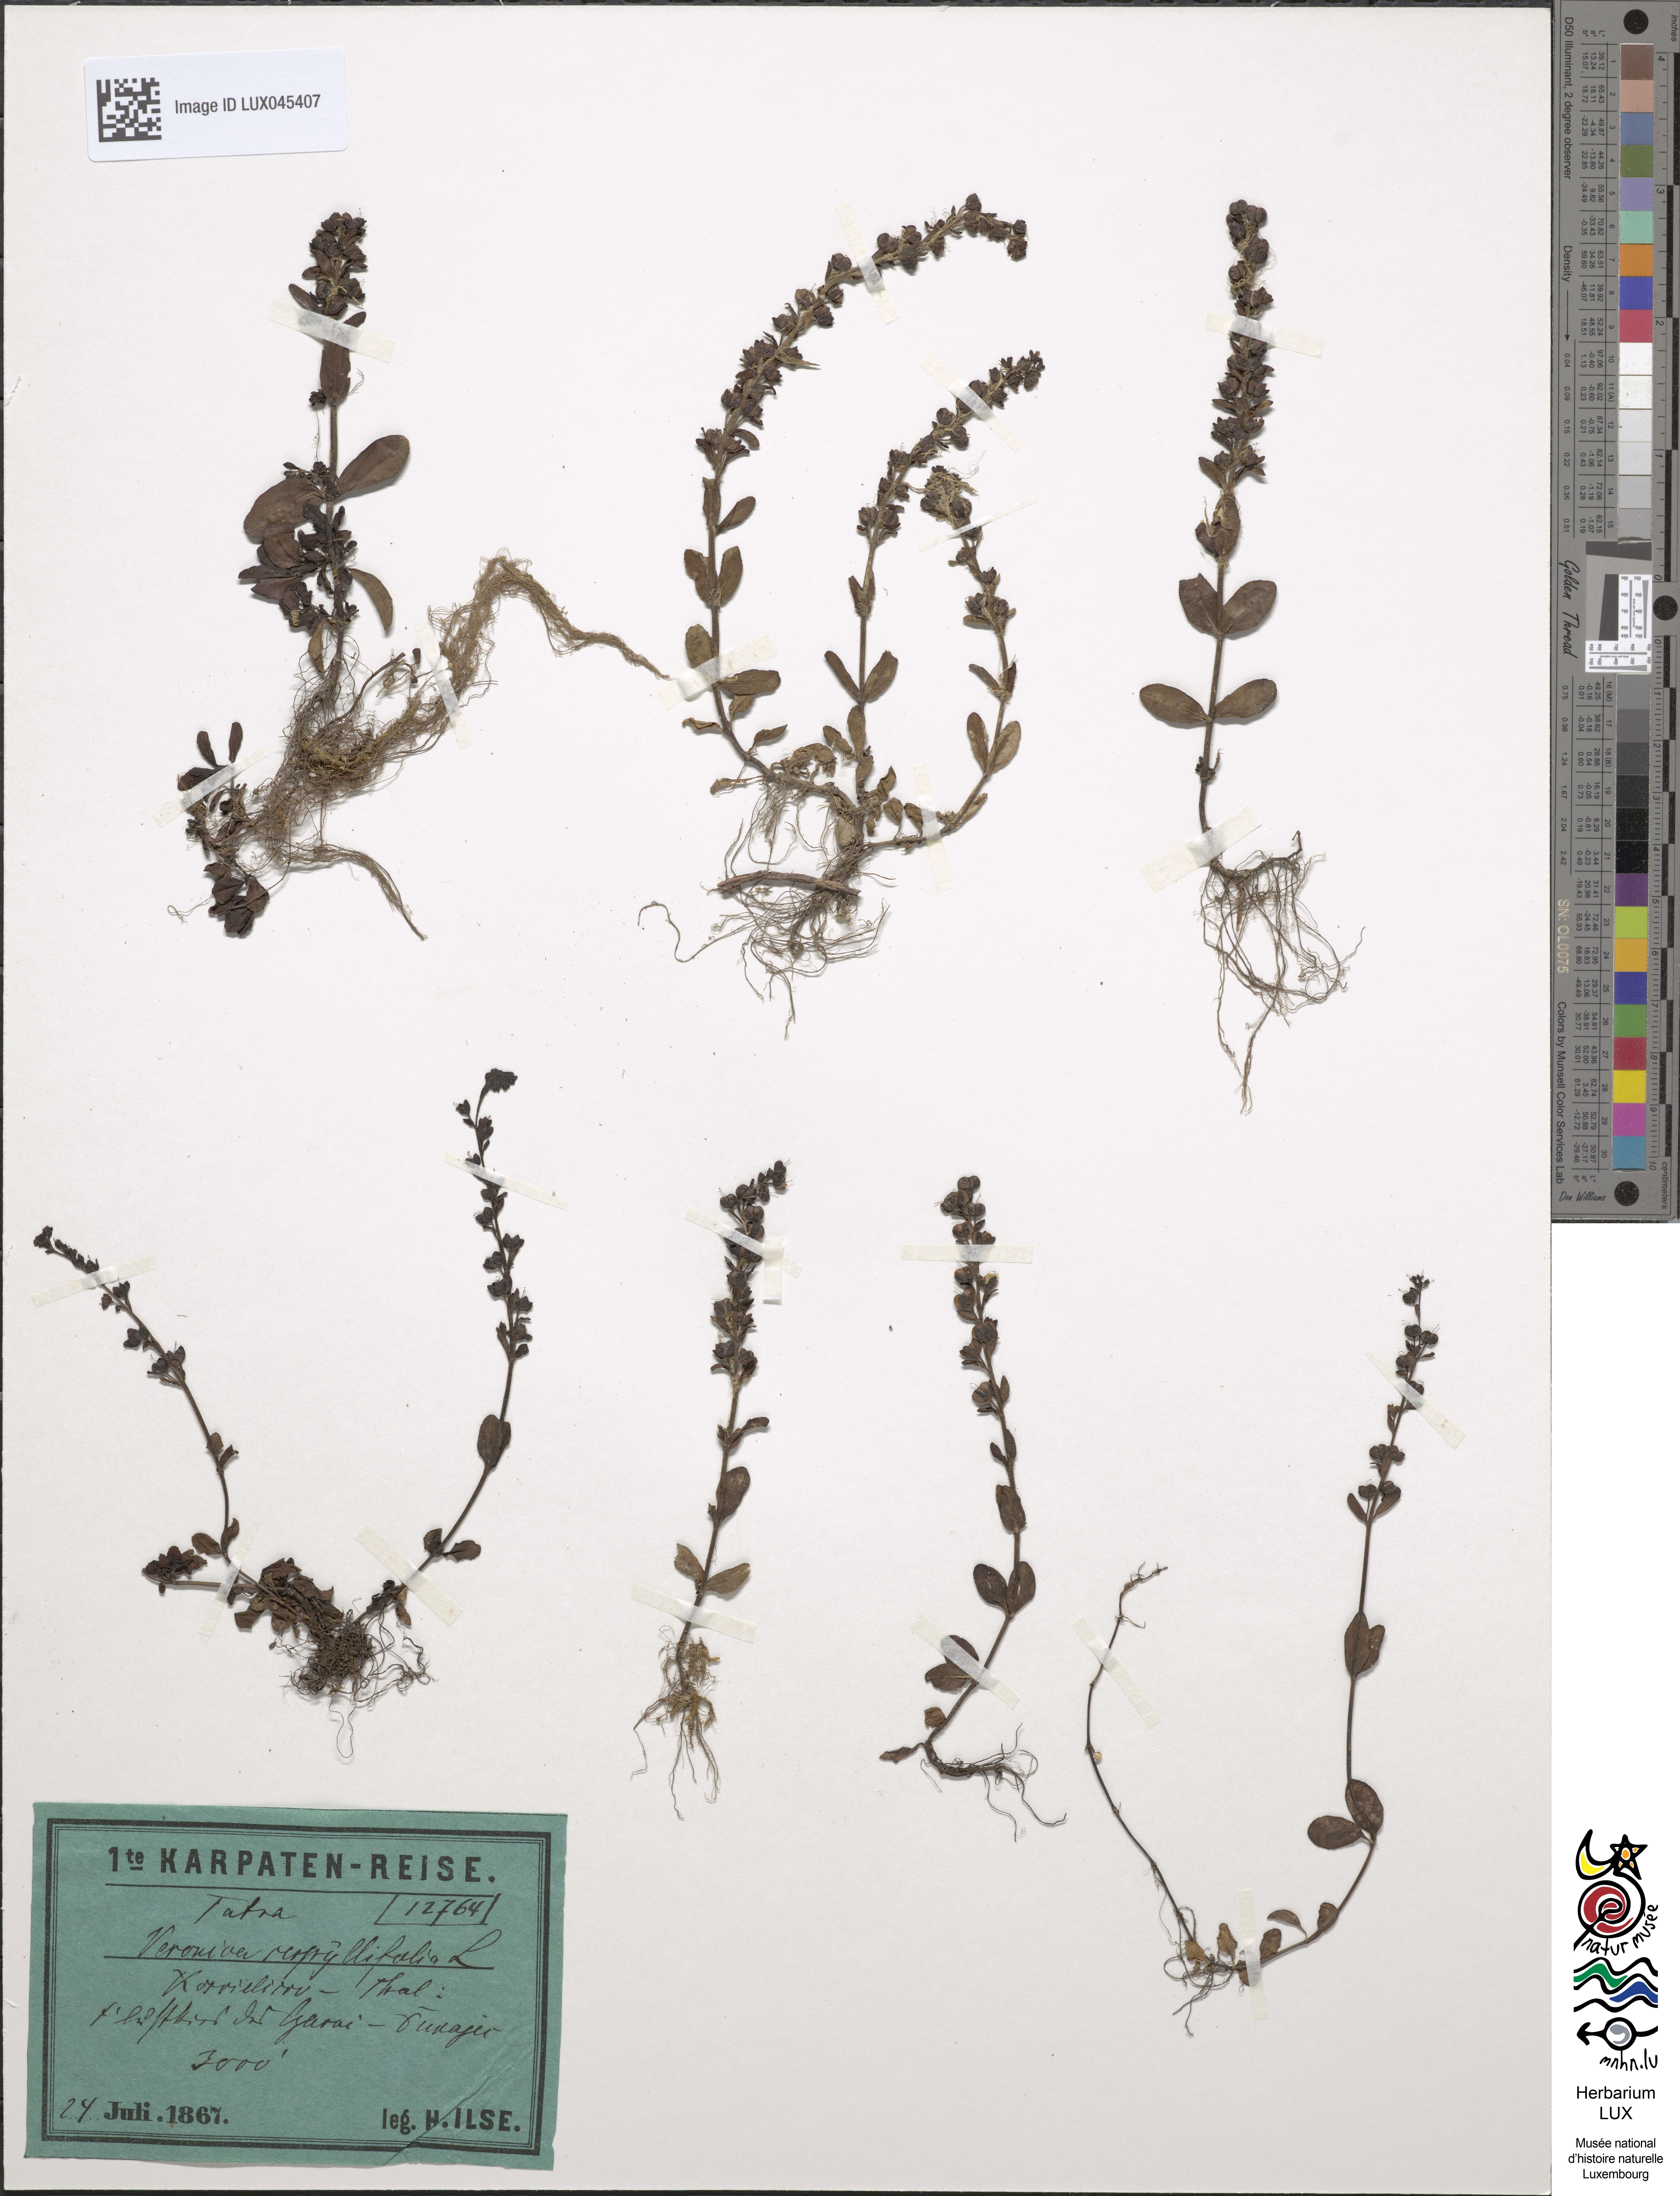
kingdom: Plantae
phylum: Tracheophyta
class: Magnoliopsida
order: Lamiales
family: Plantaginaceae
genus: Veronica
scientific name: Veronica serpyllifolia
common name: Thyme-leaved speedwell
